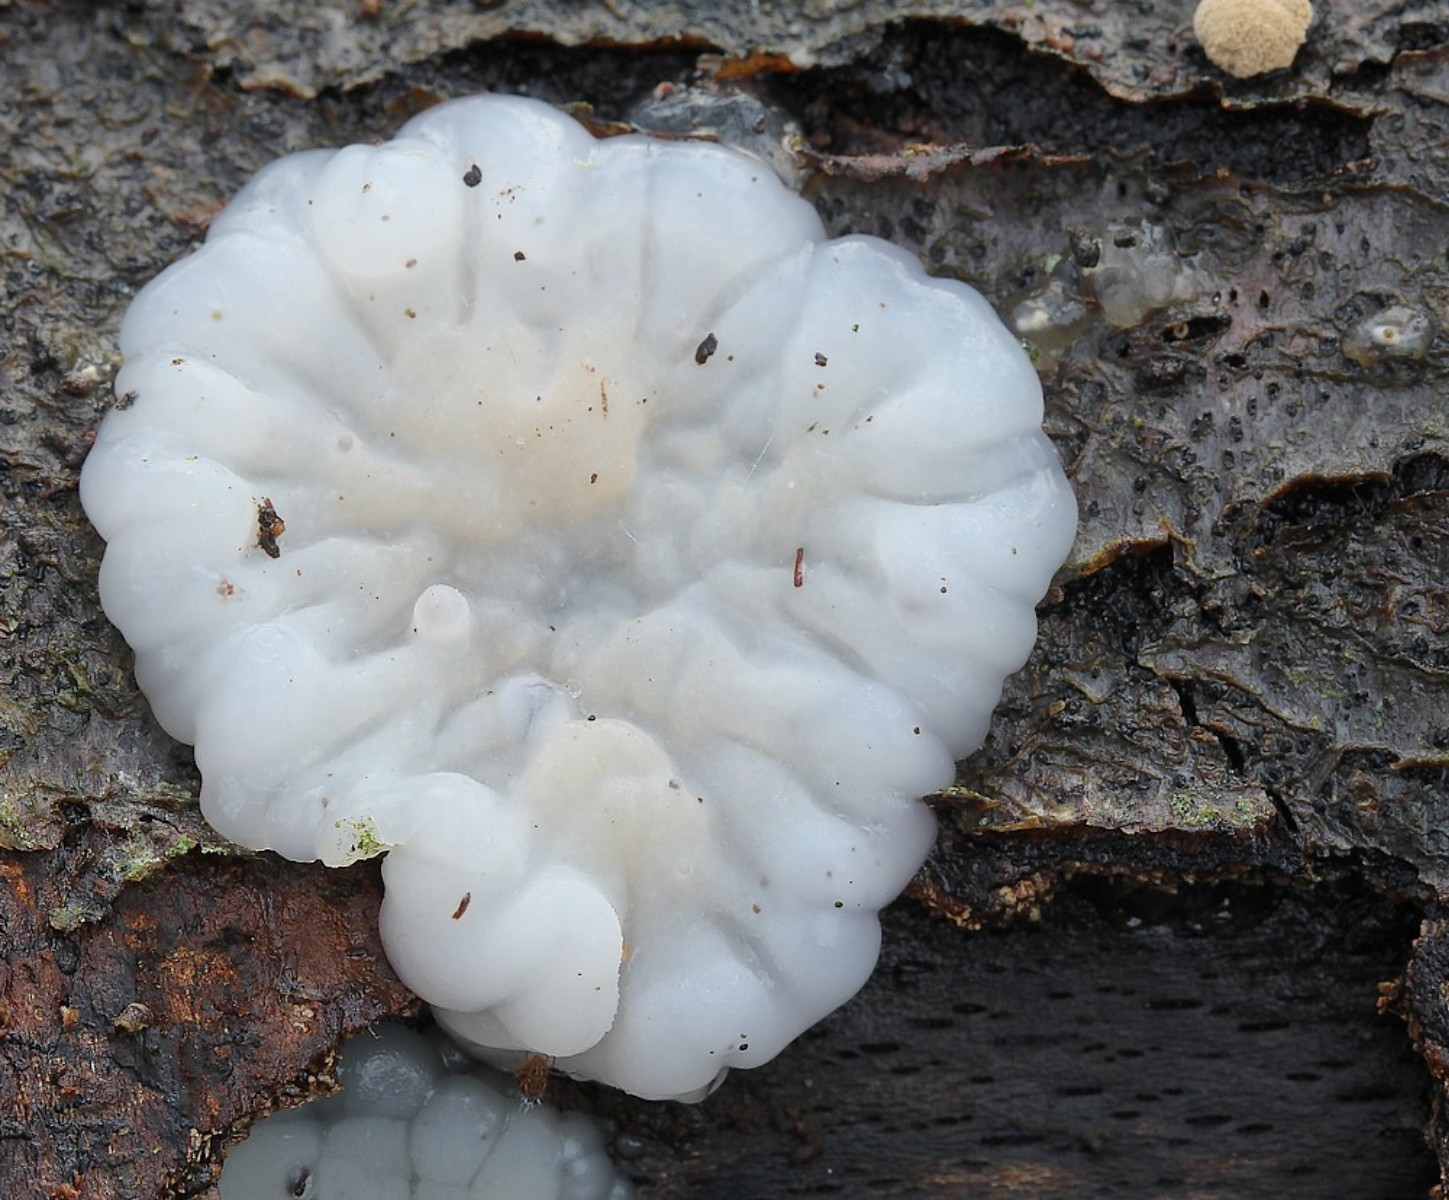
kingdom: Fungi
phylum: Basidiomycota
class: Agaricomycetes
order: Auriculariales
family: Auriculariaceae
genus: Exidia
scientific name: Exidia thuretiana
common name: hvidlig bævretop
